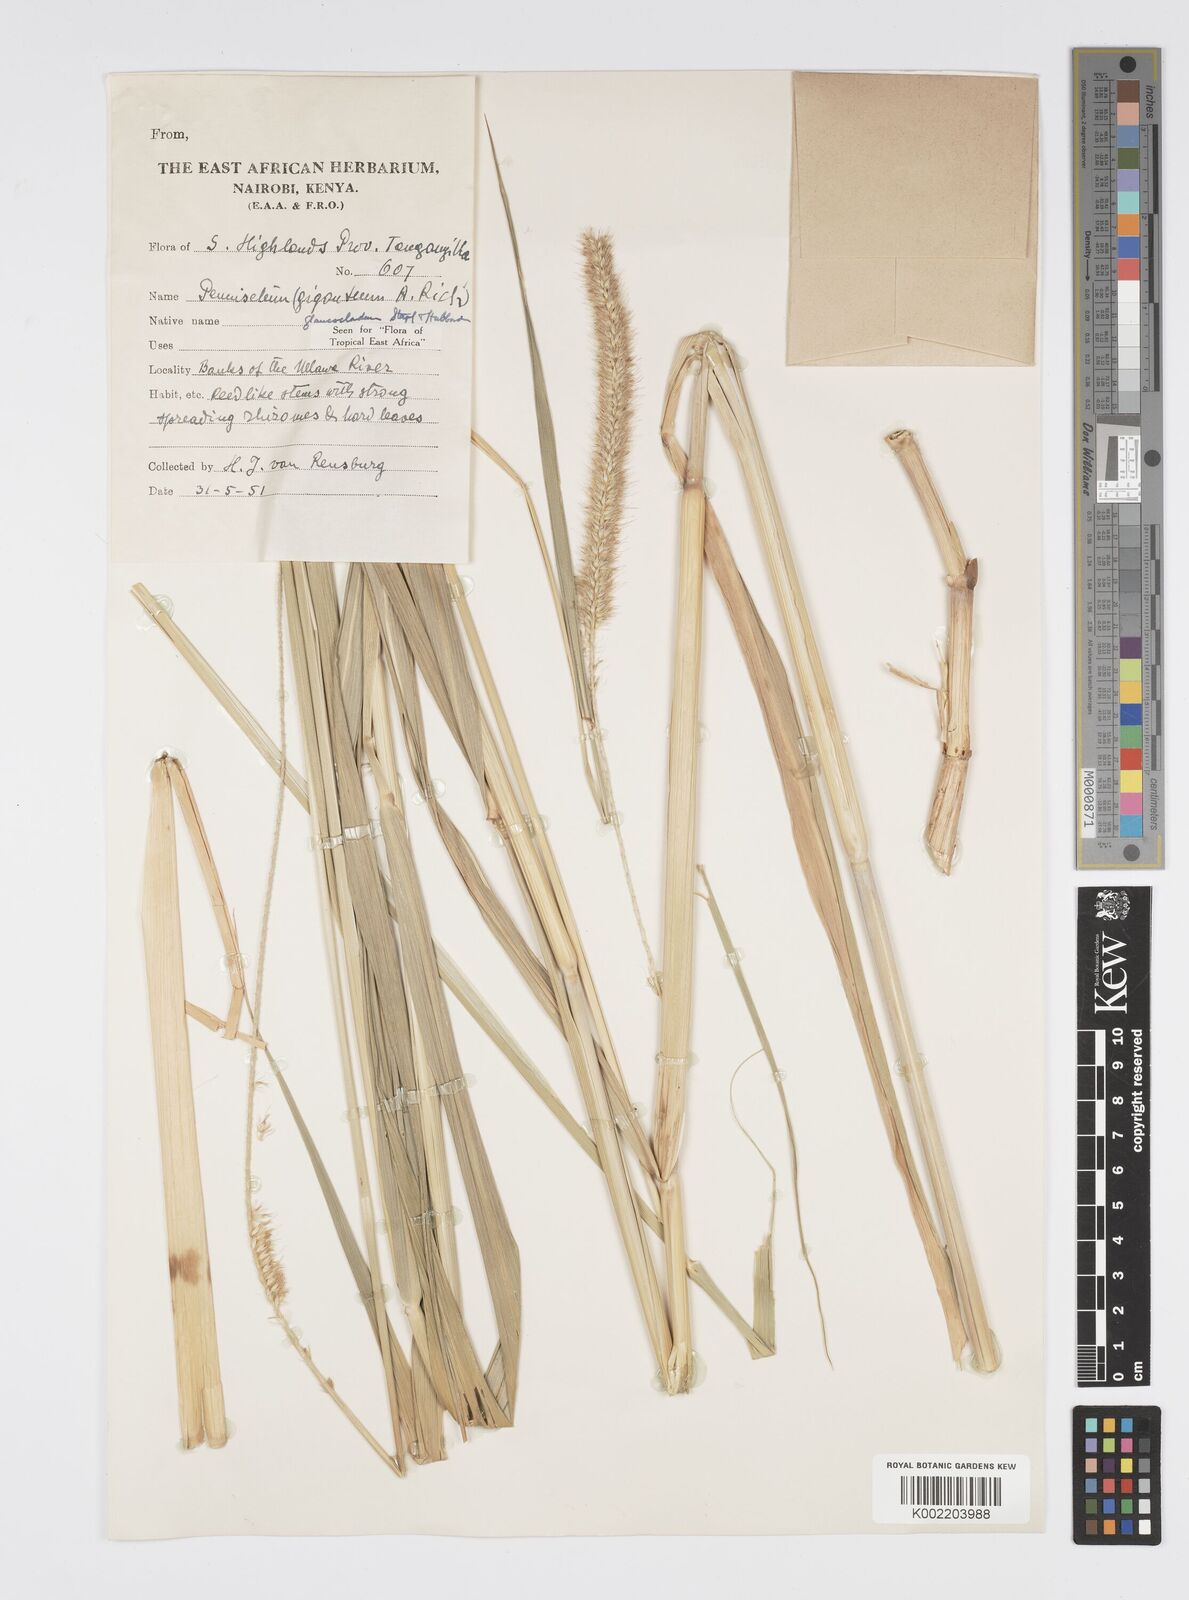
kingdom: Plantae
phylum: Tracheophyta
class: Liliopsida
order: Poales
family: Poaceae
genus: Cenchrus
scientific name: Cenchrus caudatus
